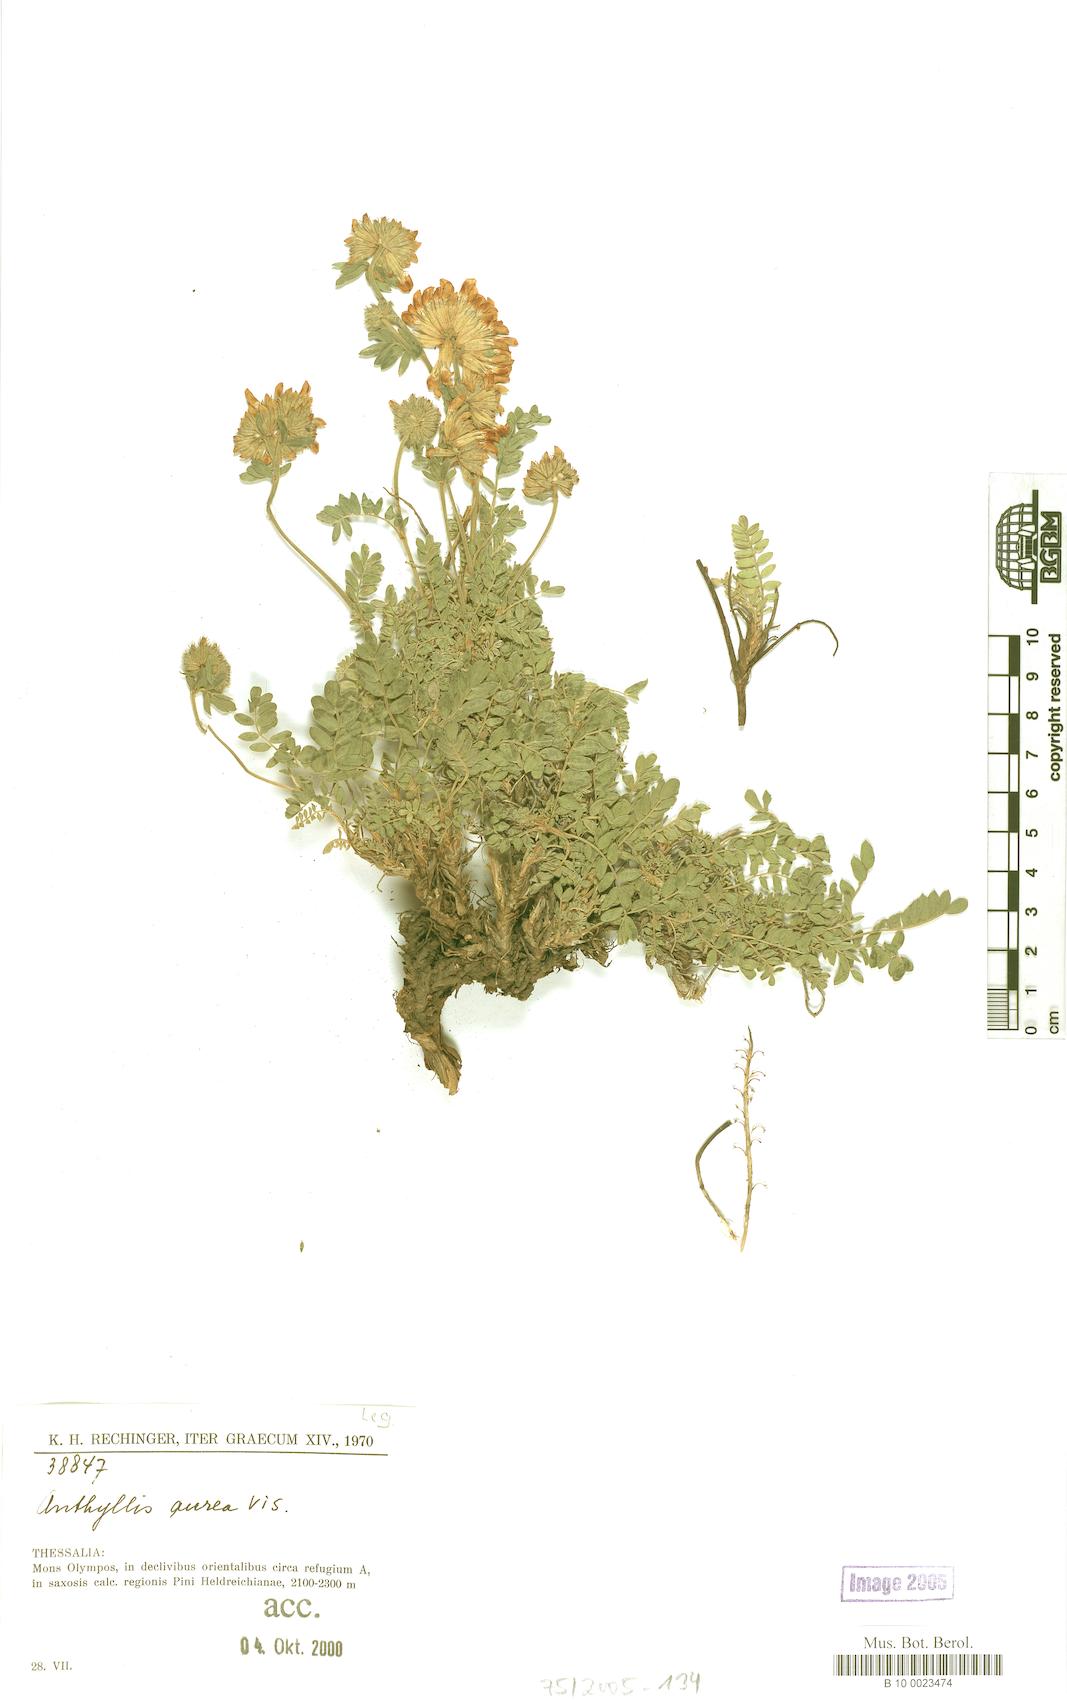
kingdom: Plantae
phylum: Tracheophyta
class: Magnoliopsida
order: Fabales
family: Fabaceae
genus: Anthyllis
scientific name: Anthyllis aurea
